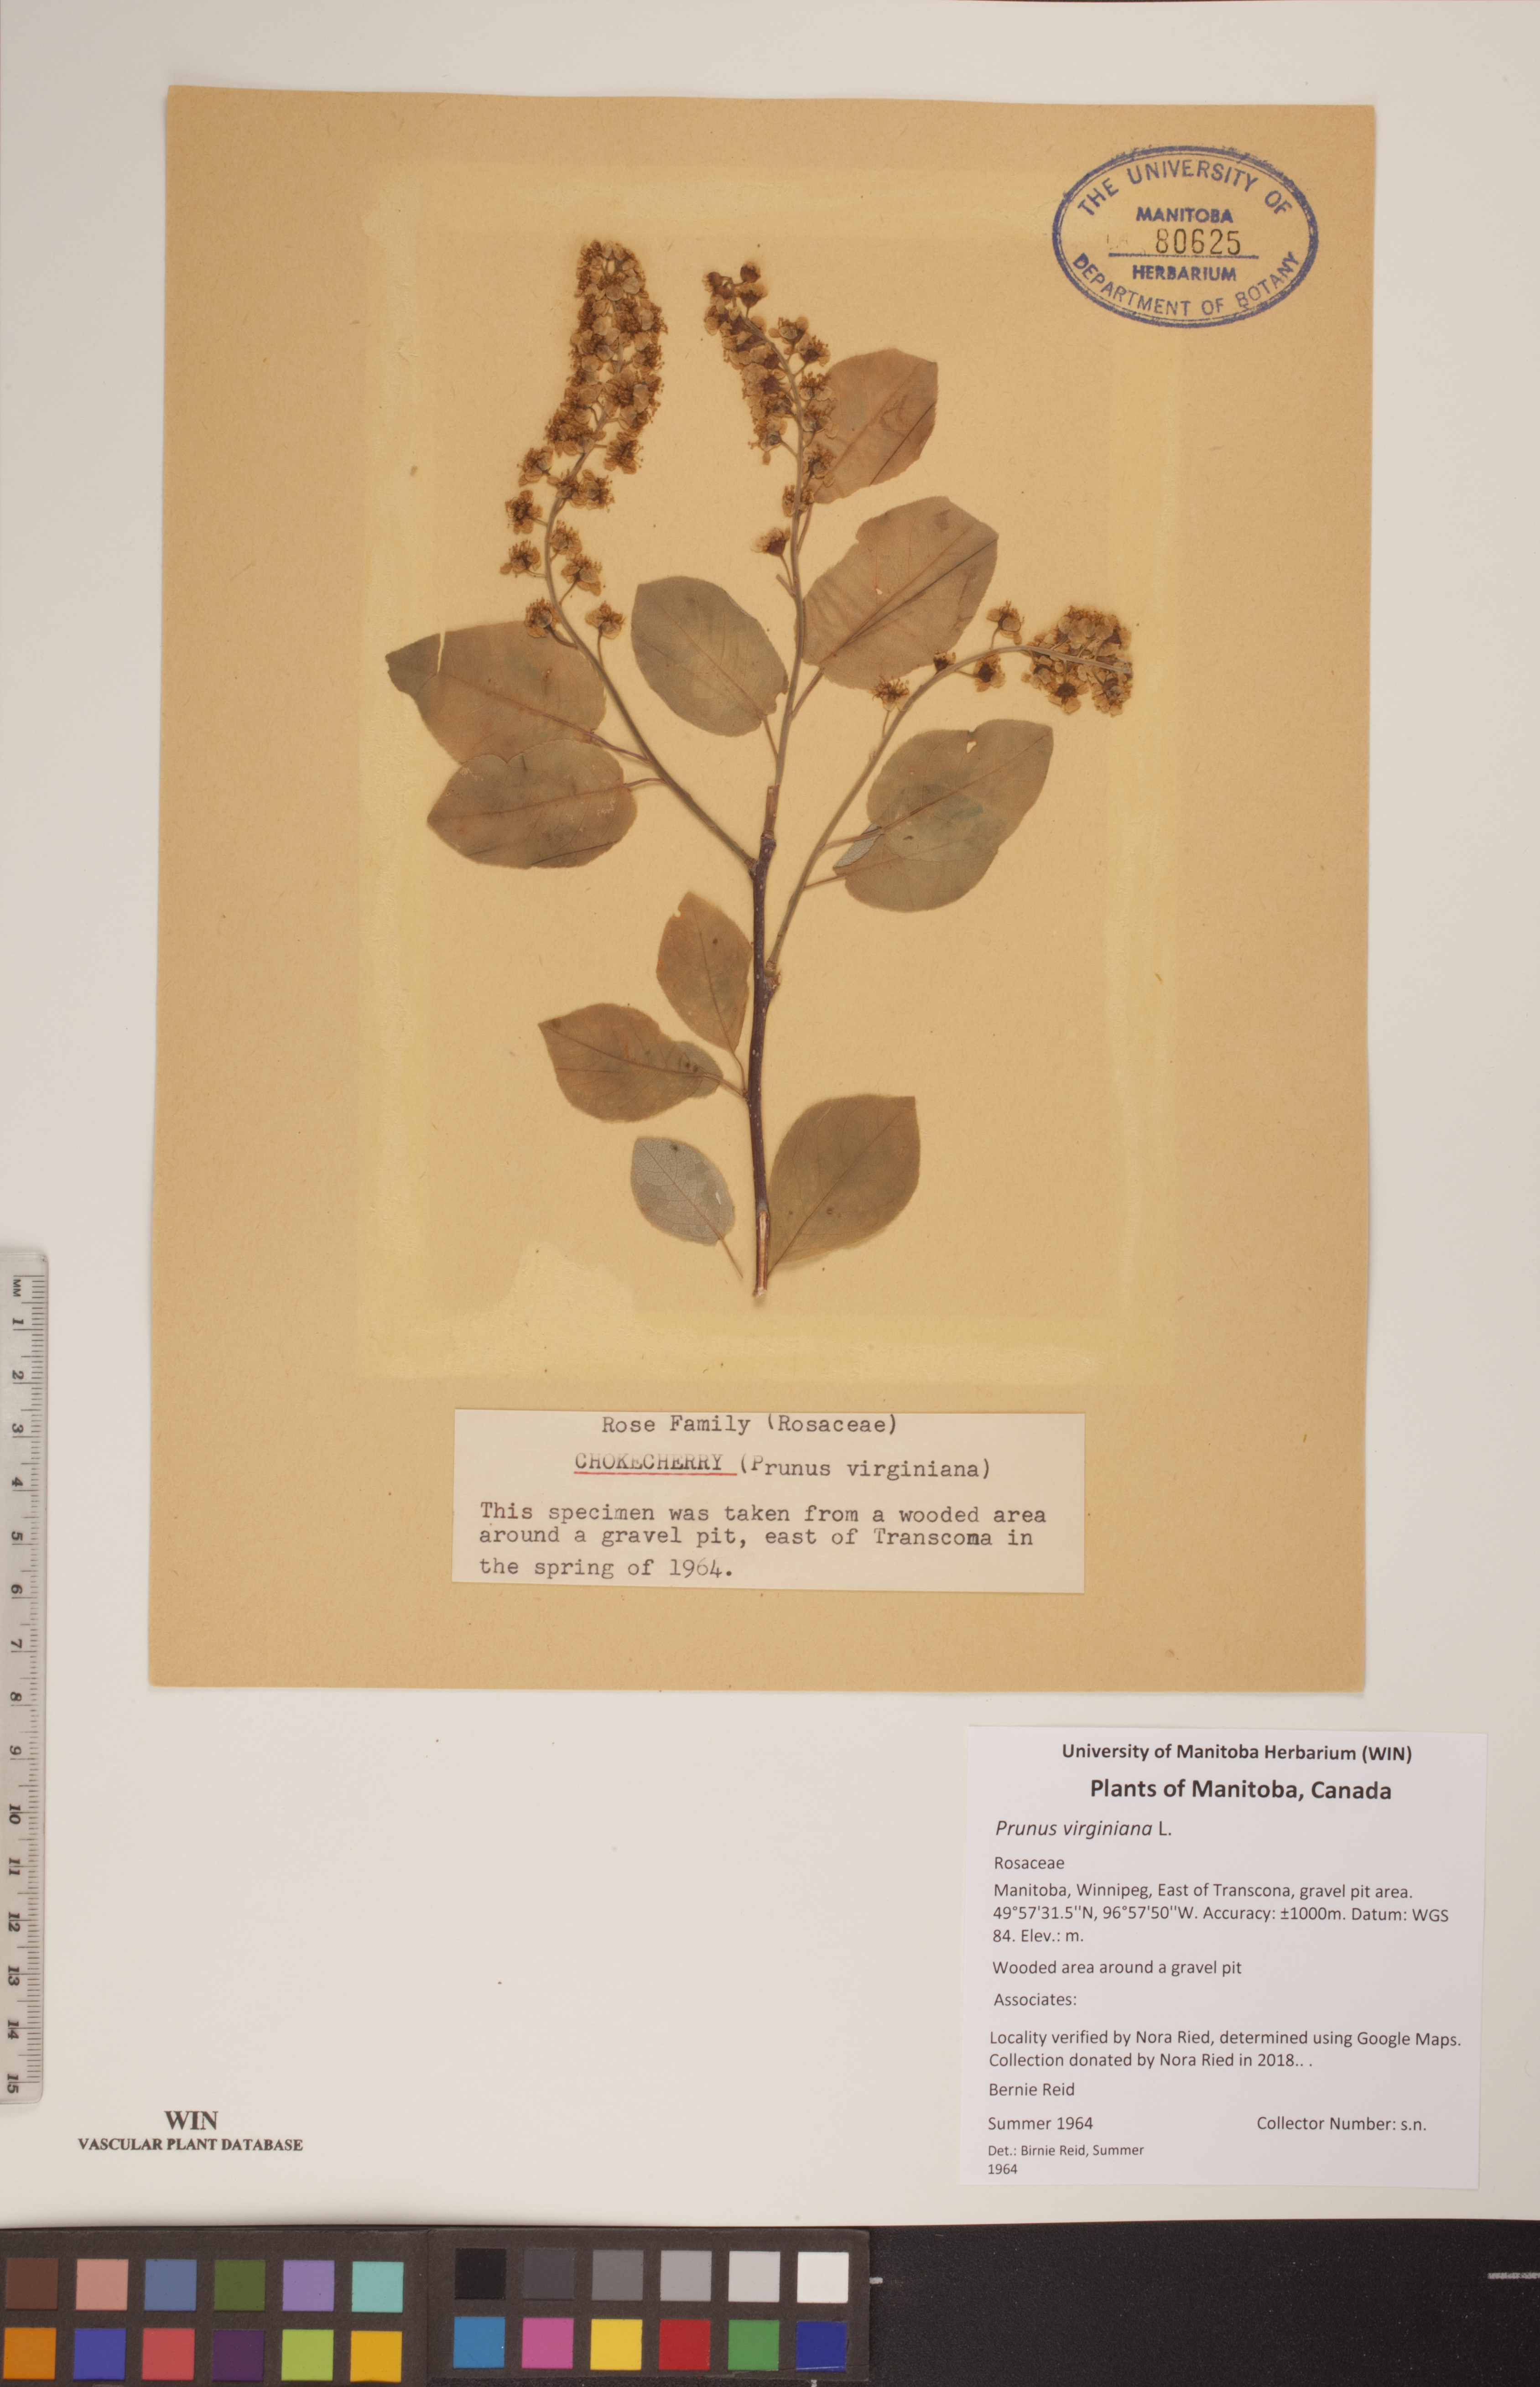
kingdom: Plantae
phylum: Tracheophyta
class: Magnoliopsida
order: Rosales
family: Rosaceae
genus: Prunus
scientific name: Prunus virginiana
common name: Chokecherry
